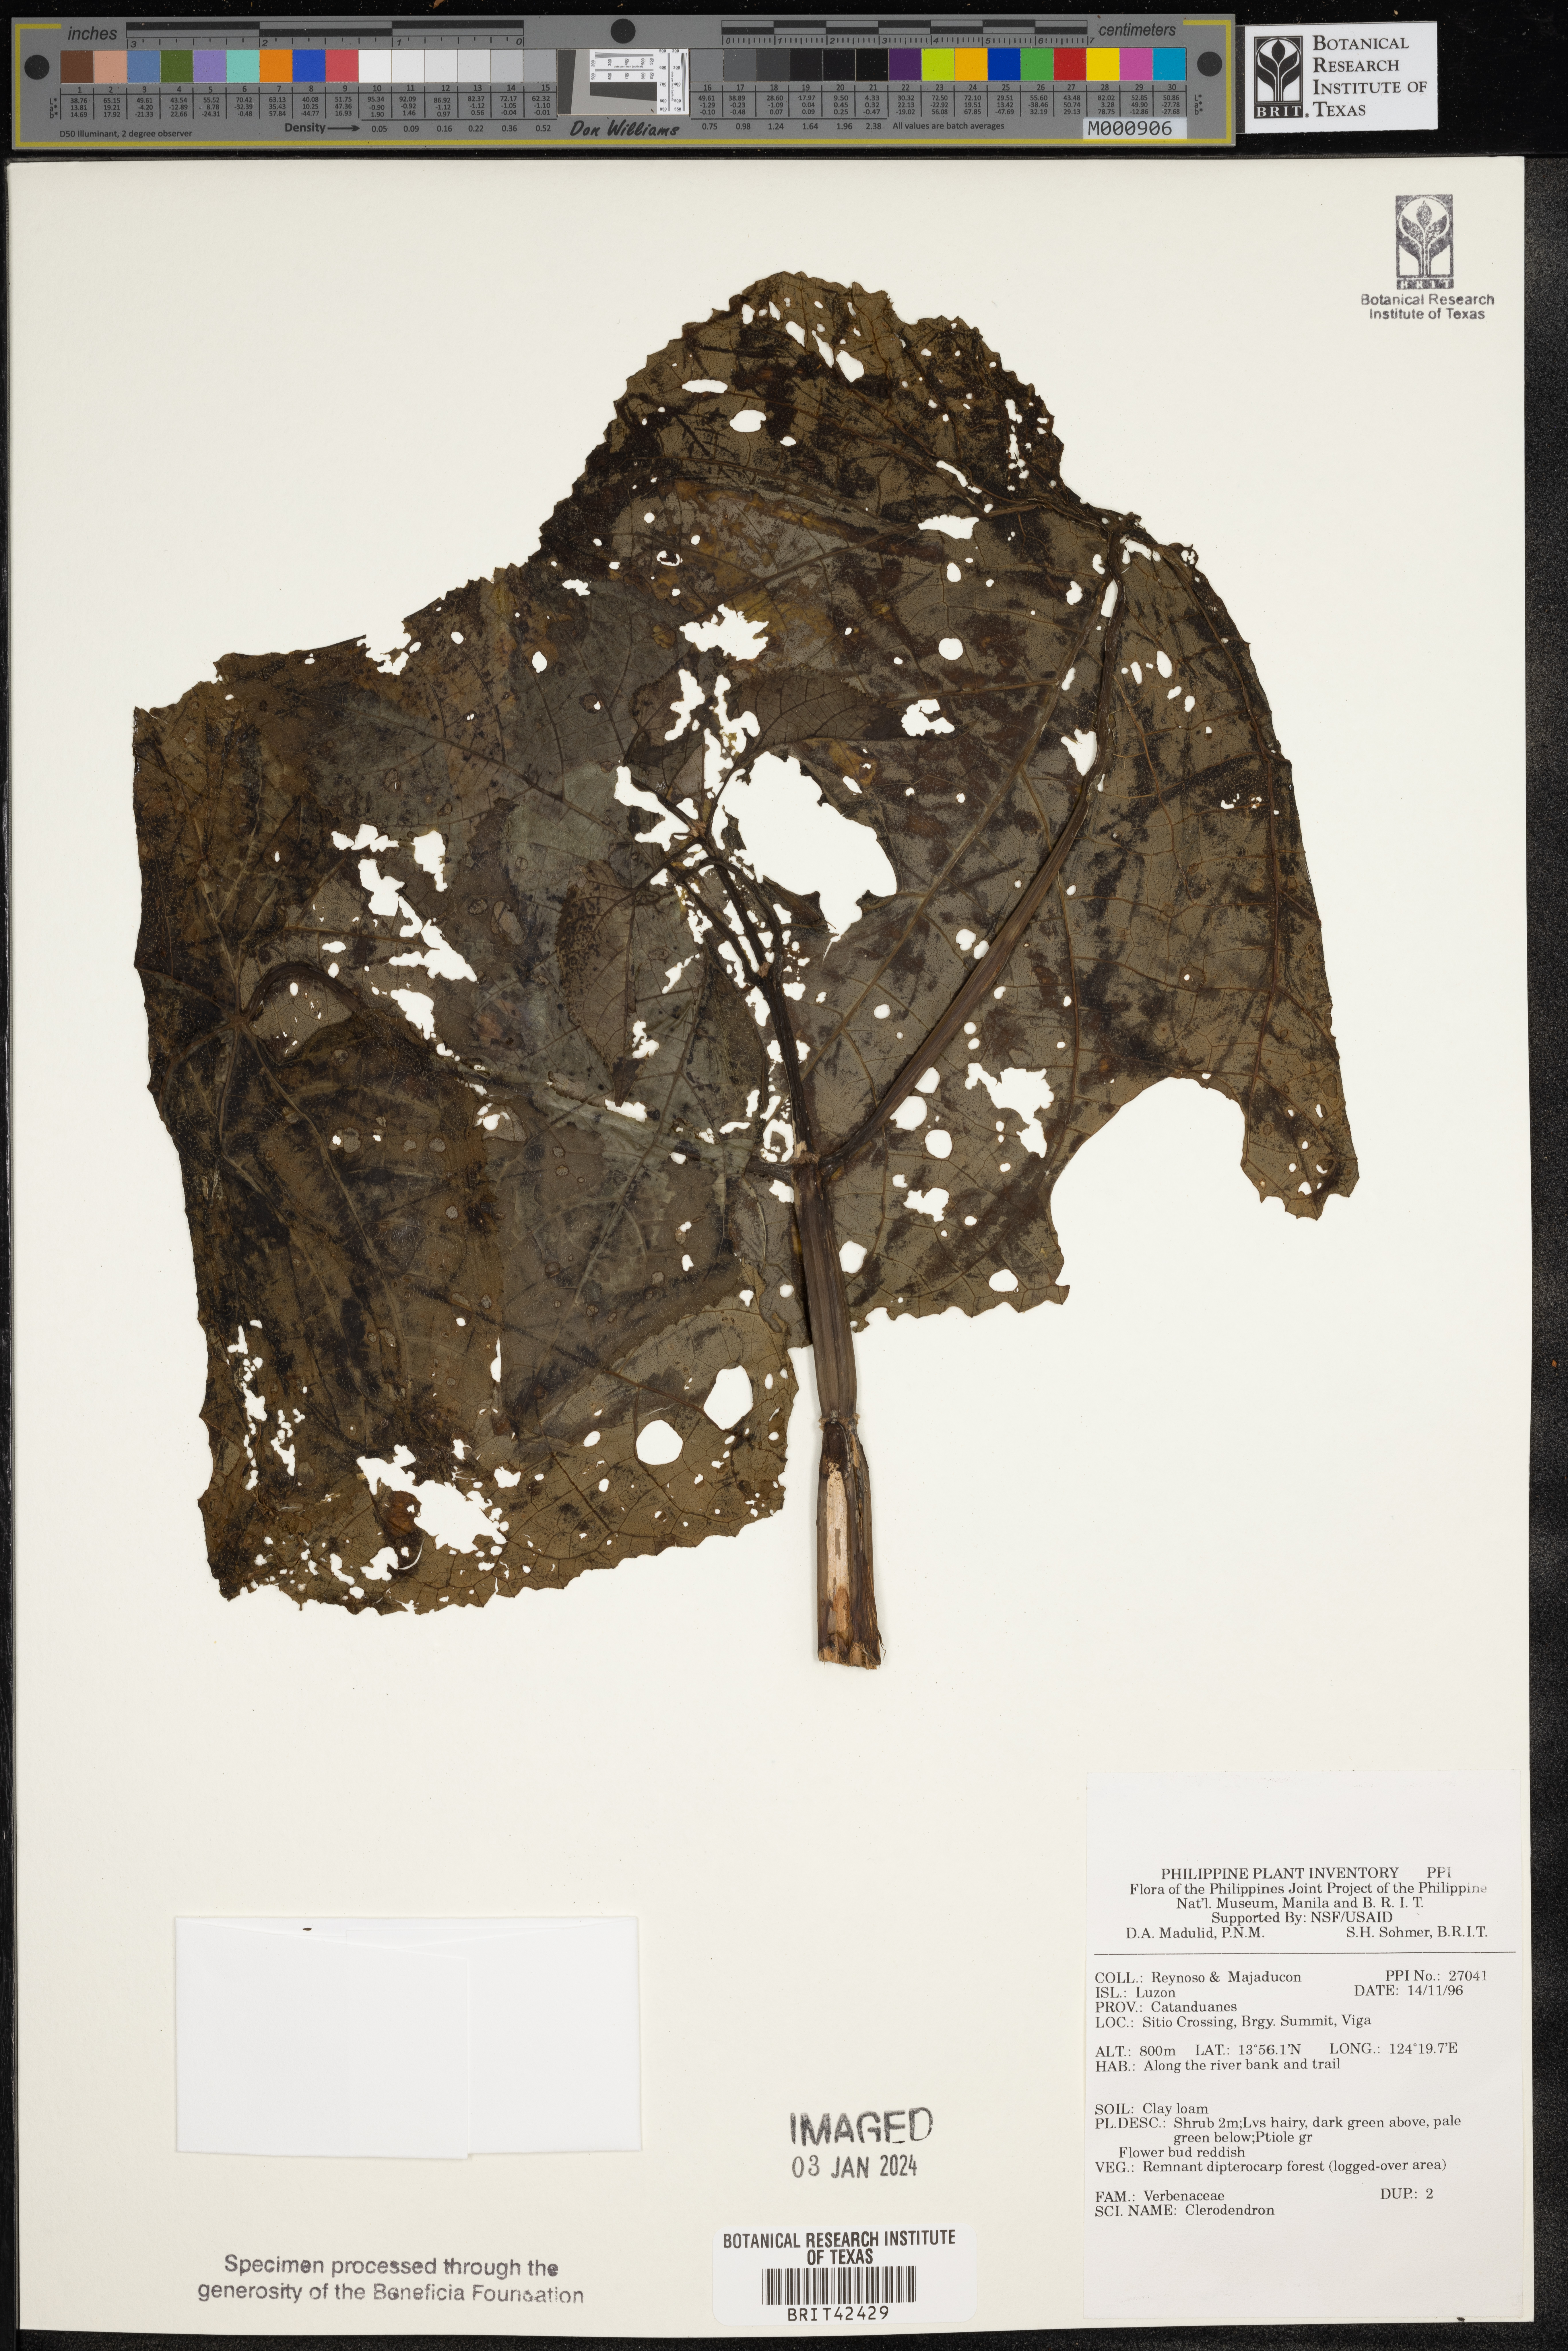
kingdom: Plantae
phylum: Tracheophyta
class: Magnoliopsida
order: Lamiales
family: Lamiaceae
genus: Clerodendrum
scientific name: Clerodendrum
